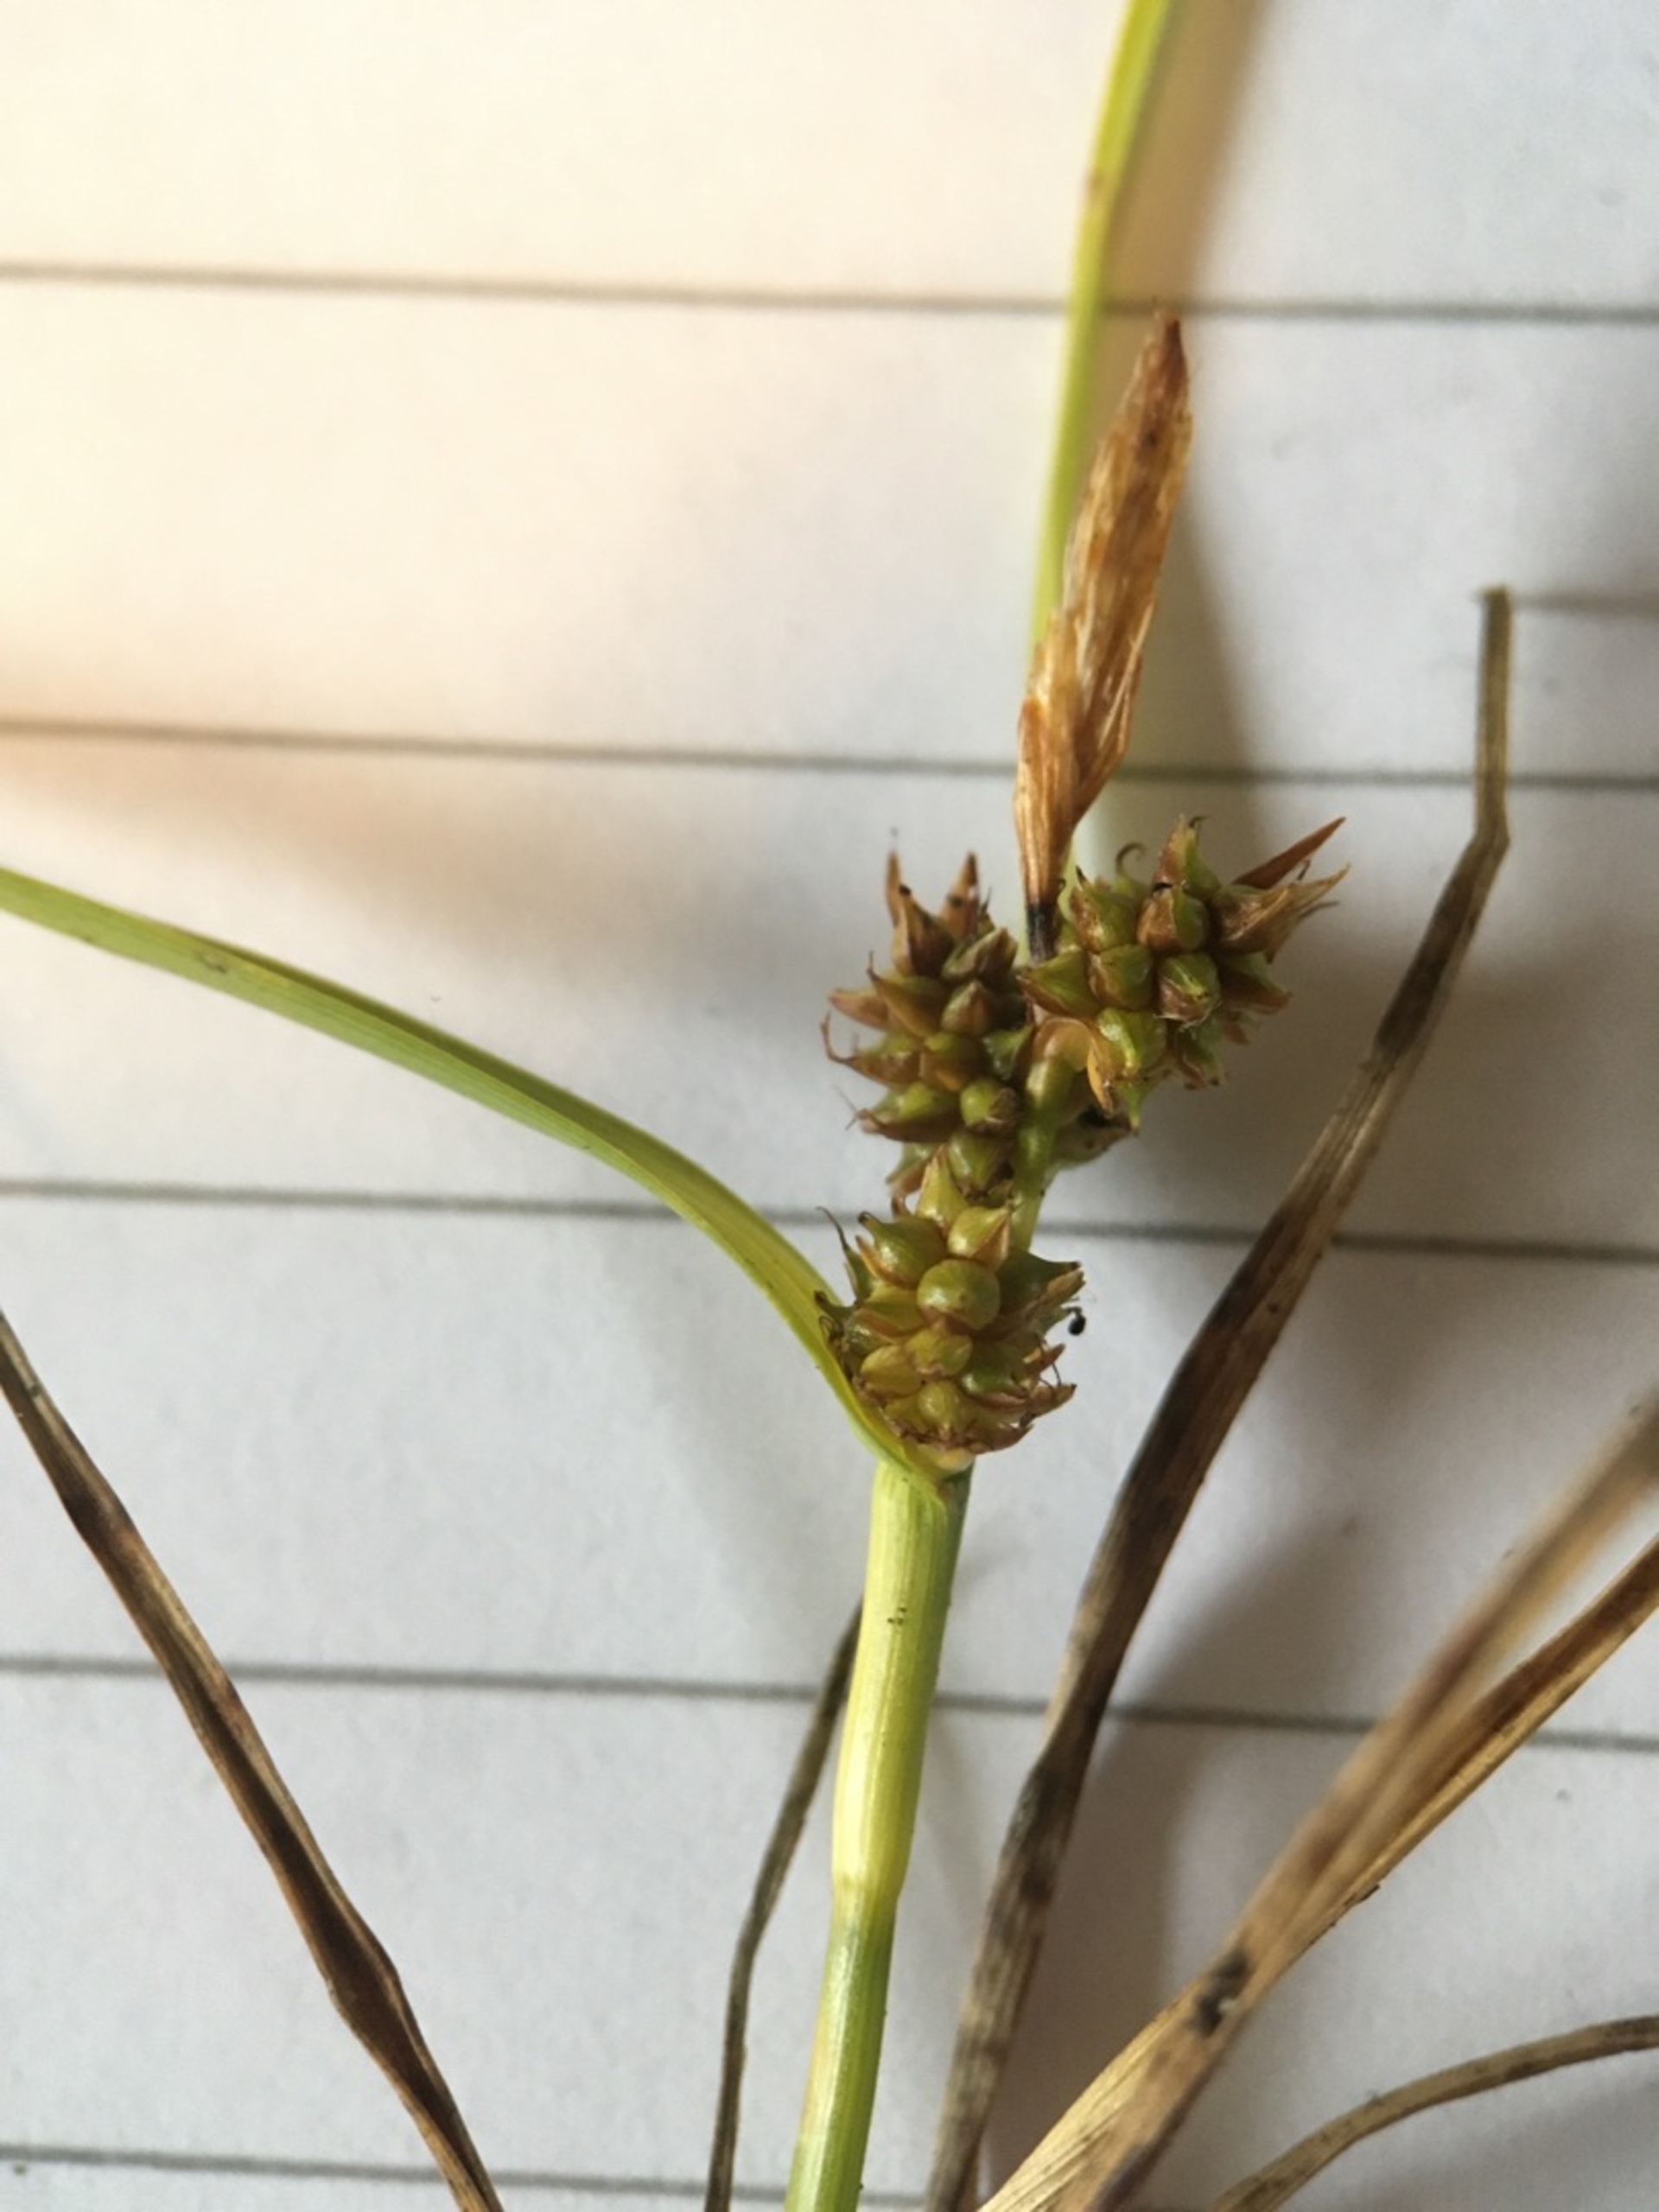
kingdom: Plantae
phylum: Tracheophyta
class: Liliopsida
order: Poales
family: Cyperaceae
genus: Carex
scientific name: Carex oederi
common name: Dværg-star
